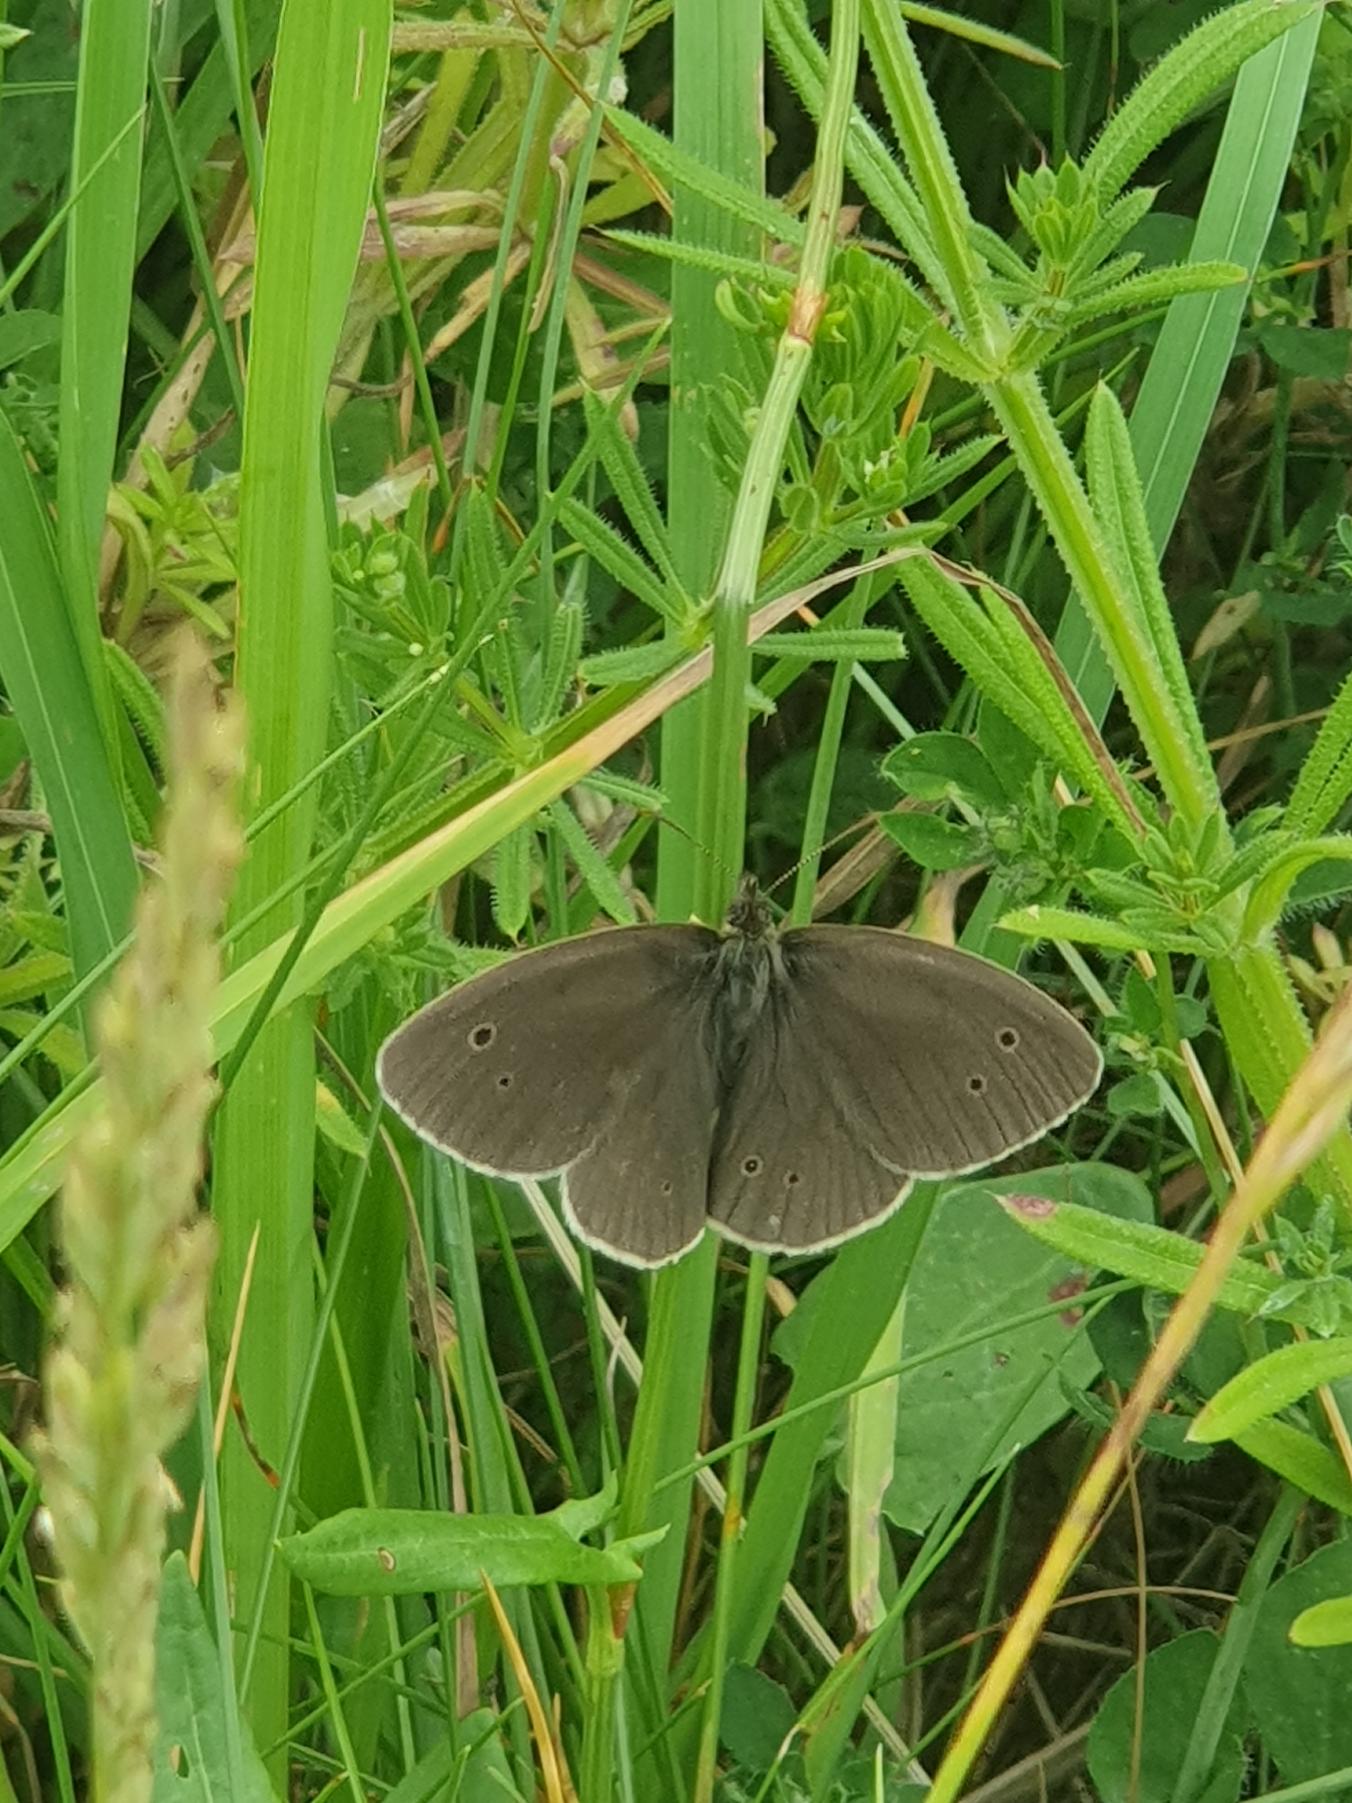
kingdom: Animalia
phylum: Arthropoda
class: Insecta
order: Lepidoptera
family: Nymphalidae
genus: Aphantopus
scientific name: Aphantopus hyperantus
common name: Engrandøje
